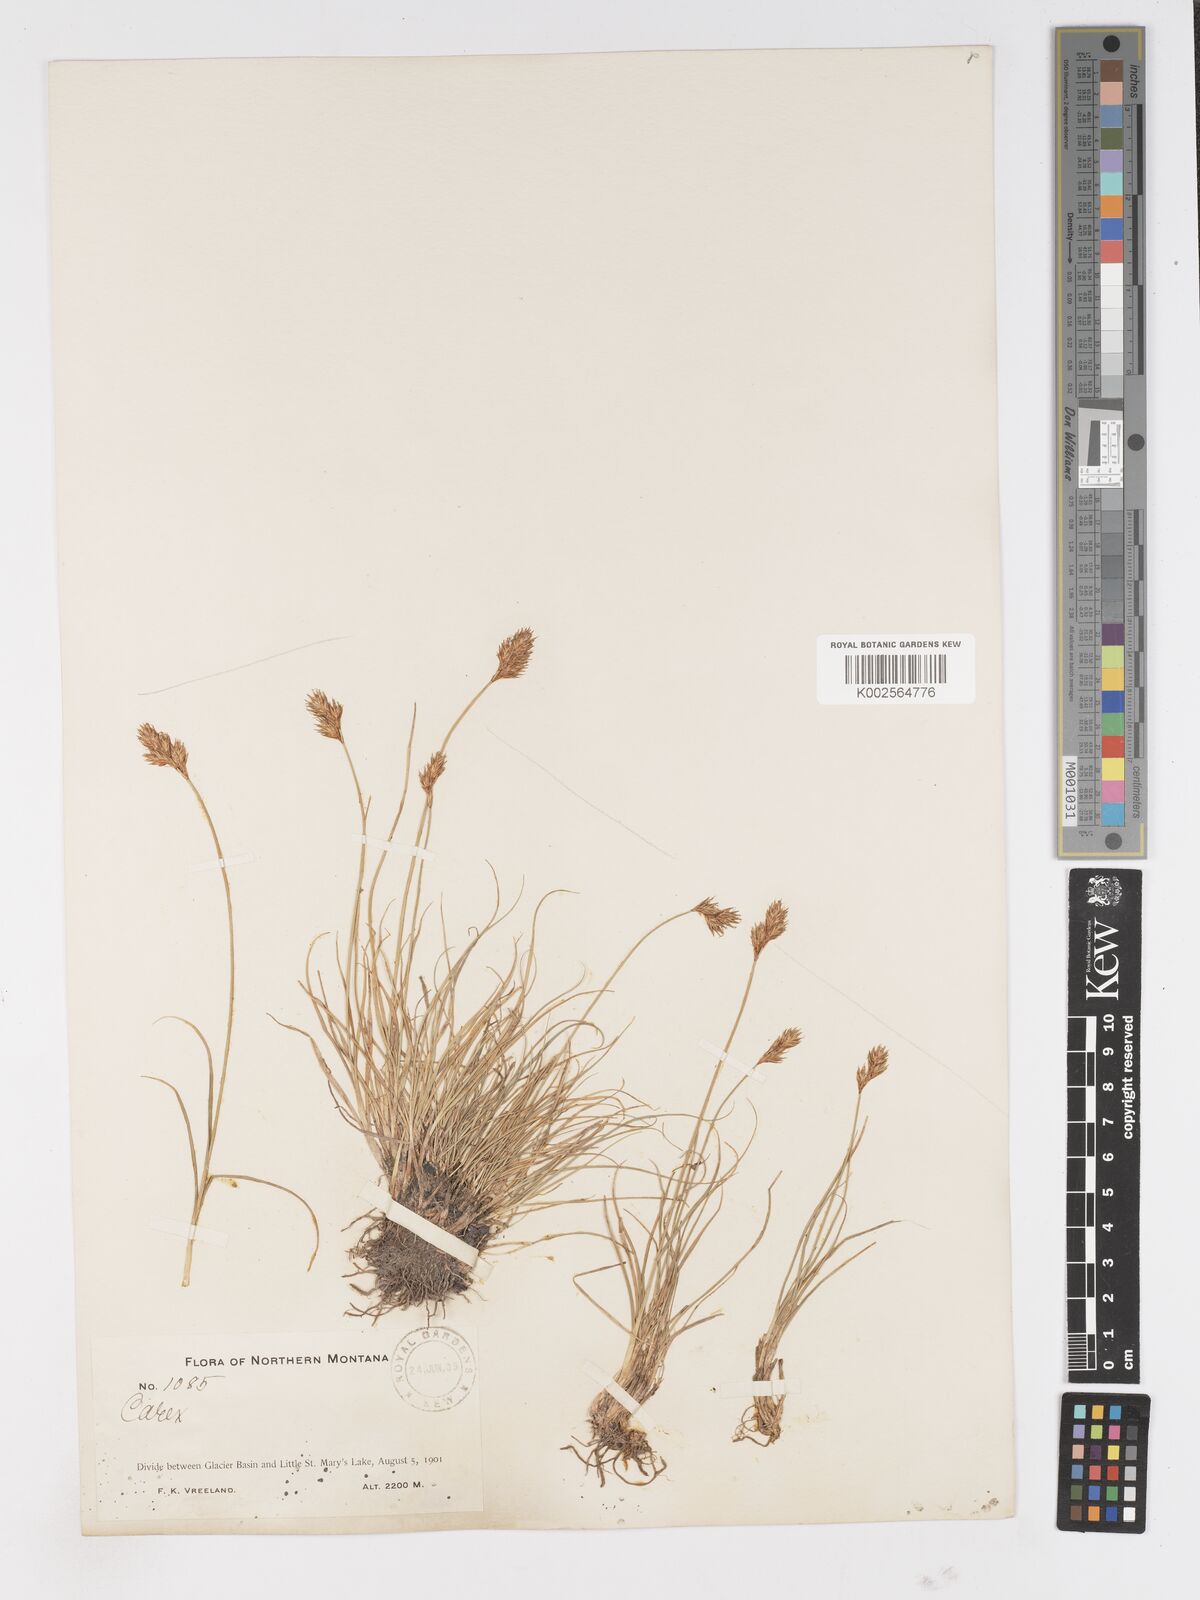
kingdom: Plantae
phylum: Tracheophyta
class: Liliopsida
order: Poales
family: Cyperaceae
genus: Carex
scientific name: Carex
